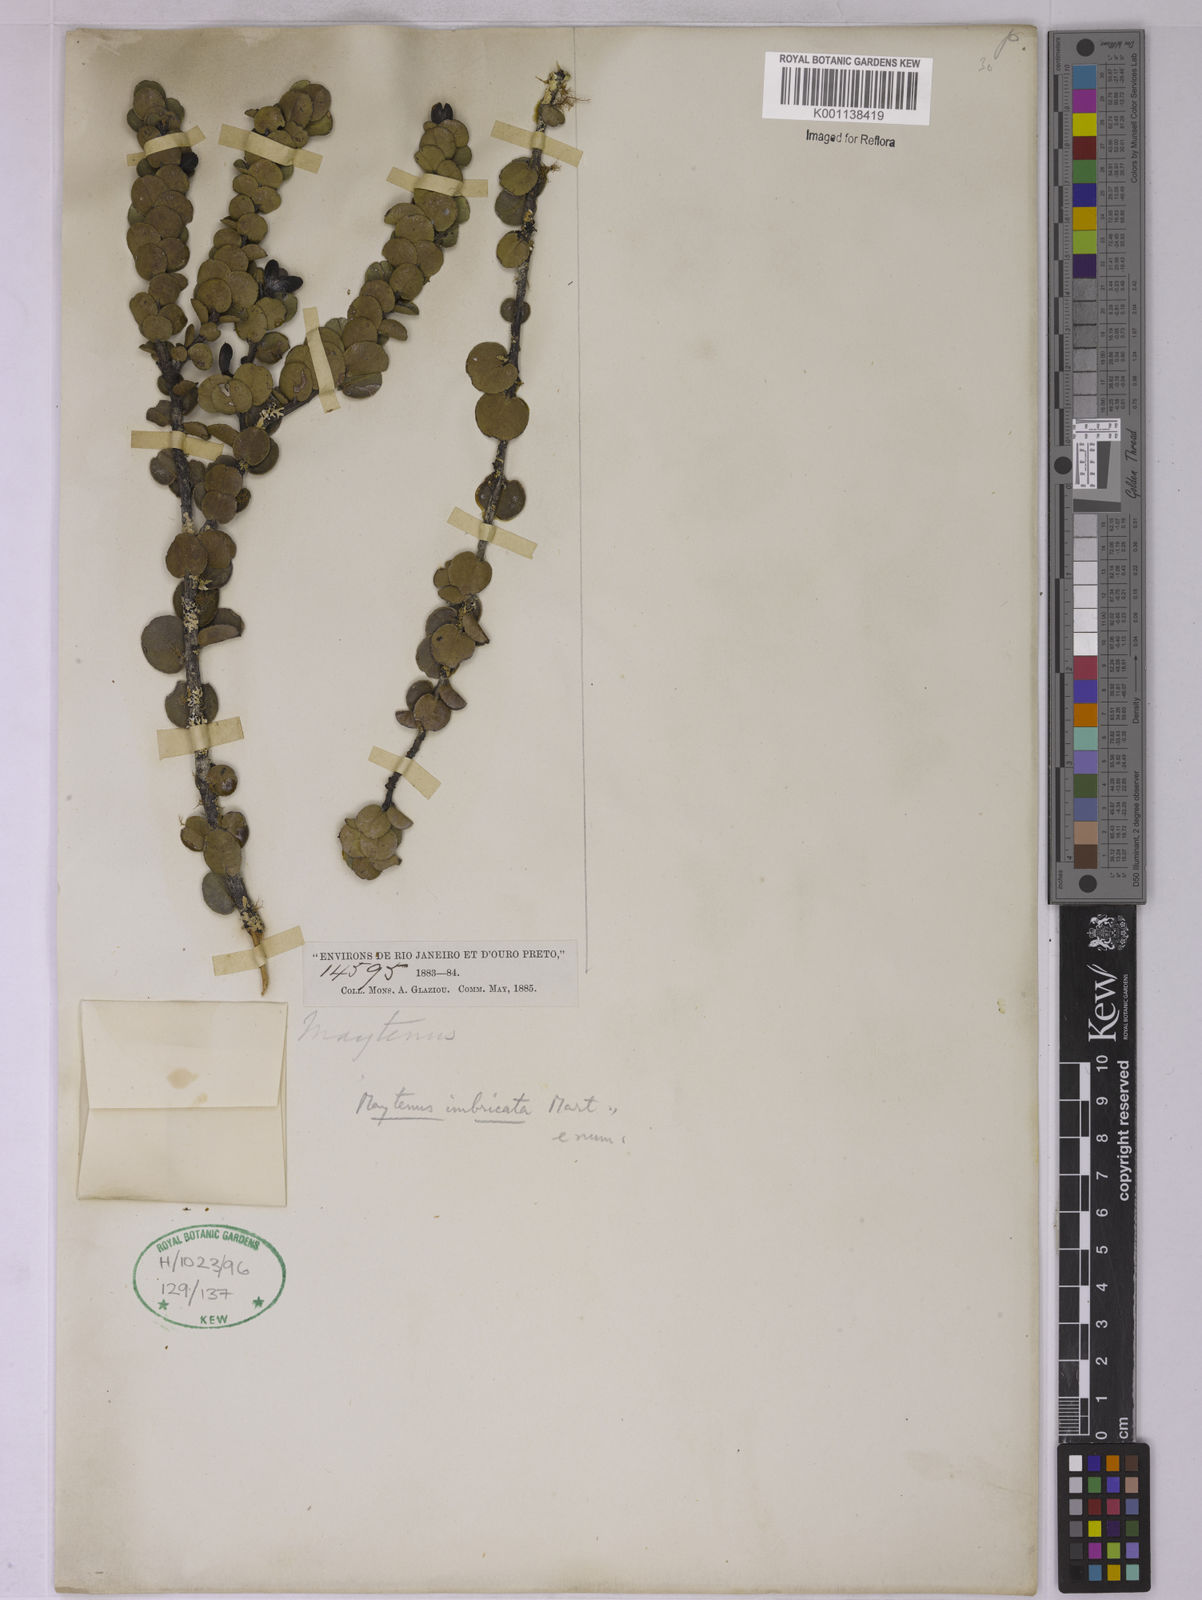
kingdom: Plantae
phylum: Tracheophyta
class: Magnoliopsida
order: Celastrales
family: Celastraceae
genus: Monteverdia
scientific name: Monteverdia imbricata
